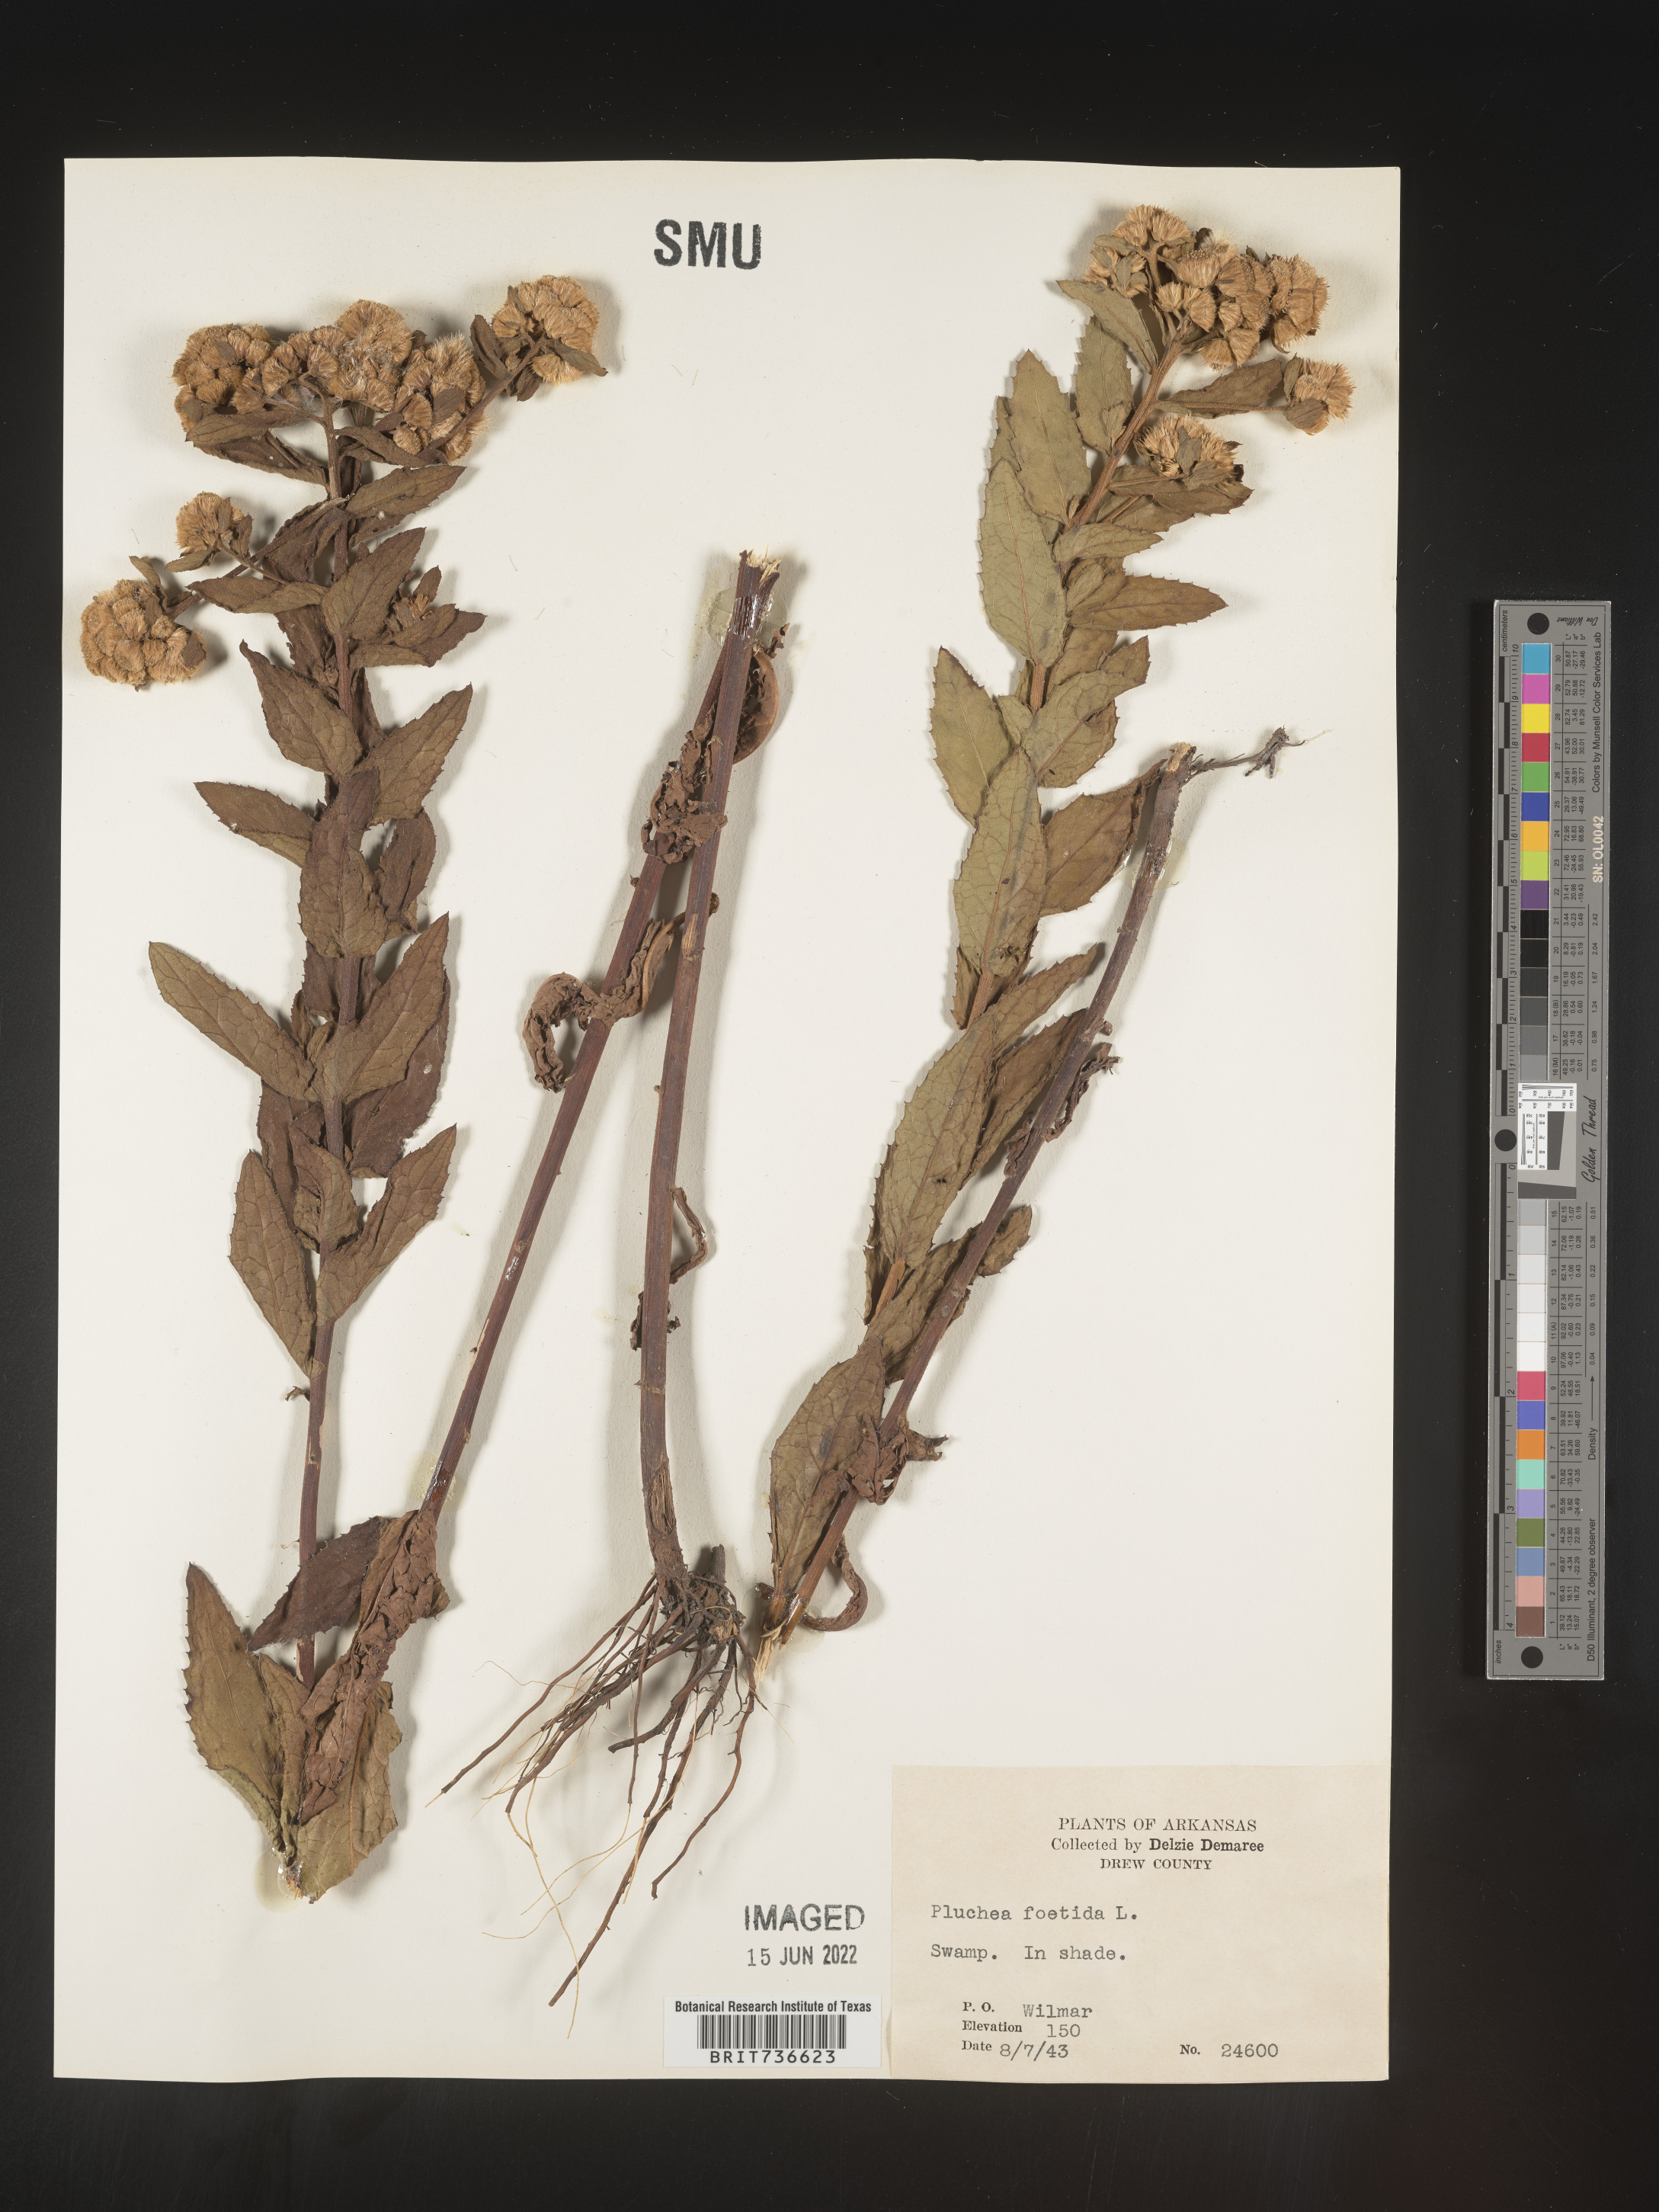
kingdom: Plantae
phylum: Tracheophyta
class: Magnoliopsida
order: Asterales
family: Asteraceae
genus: Pluchea
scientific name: Pluchea foetida
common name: Stinking camphorweed
